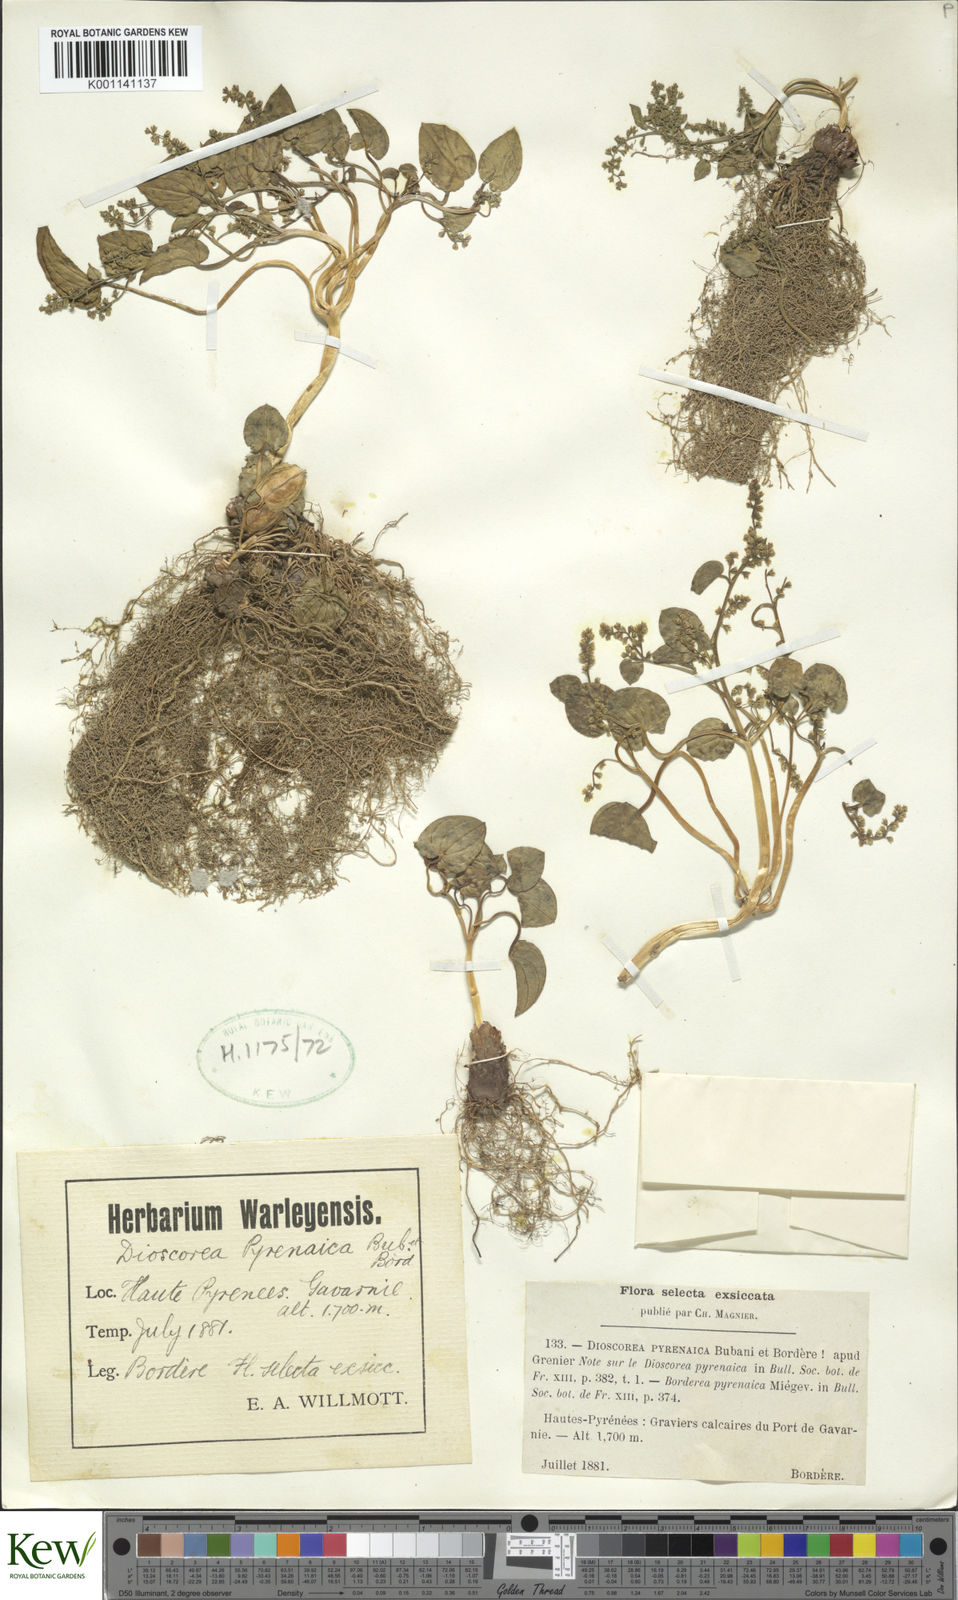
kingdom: Plantae
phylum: Tracheophyta
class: Liliopsida
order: Dioscoreales
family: Dioscoreaceae
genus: Dioscorea
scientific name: Dioscorea
